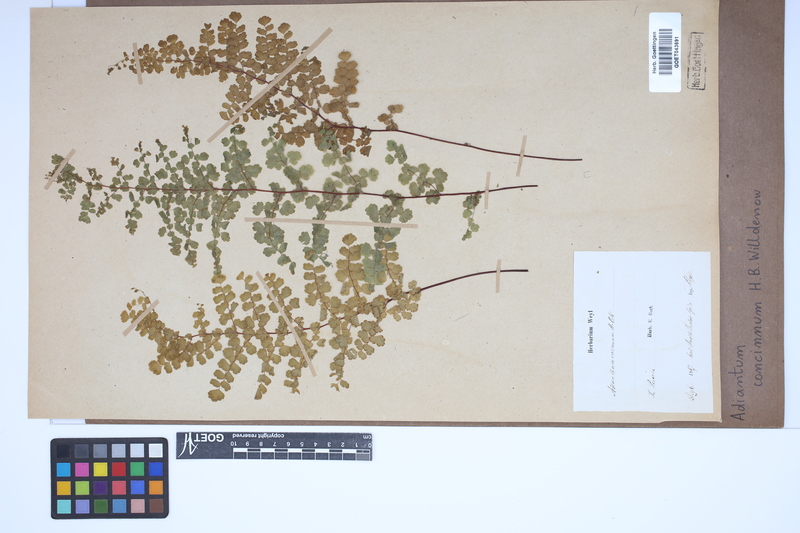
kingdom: Plantae
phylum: Tracheophyta
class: Polypodiopsida
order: Polypodiales
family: Pteridaceae
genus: Adiantum
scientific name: Adiantum concinnum
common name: Brittle maidenhair fern
